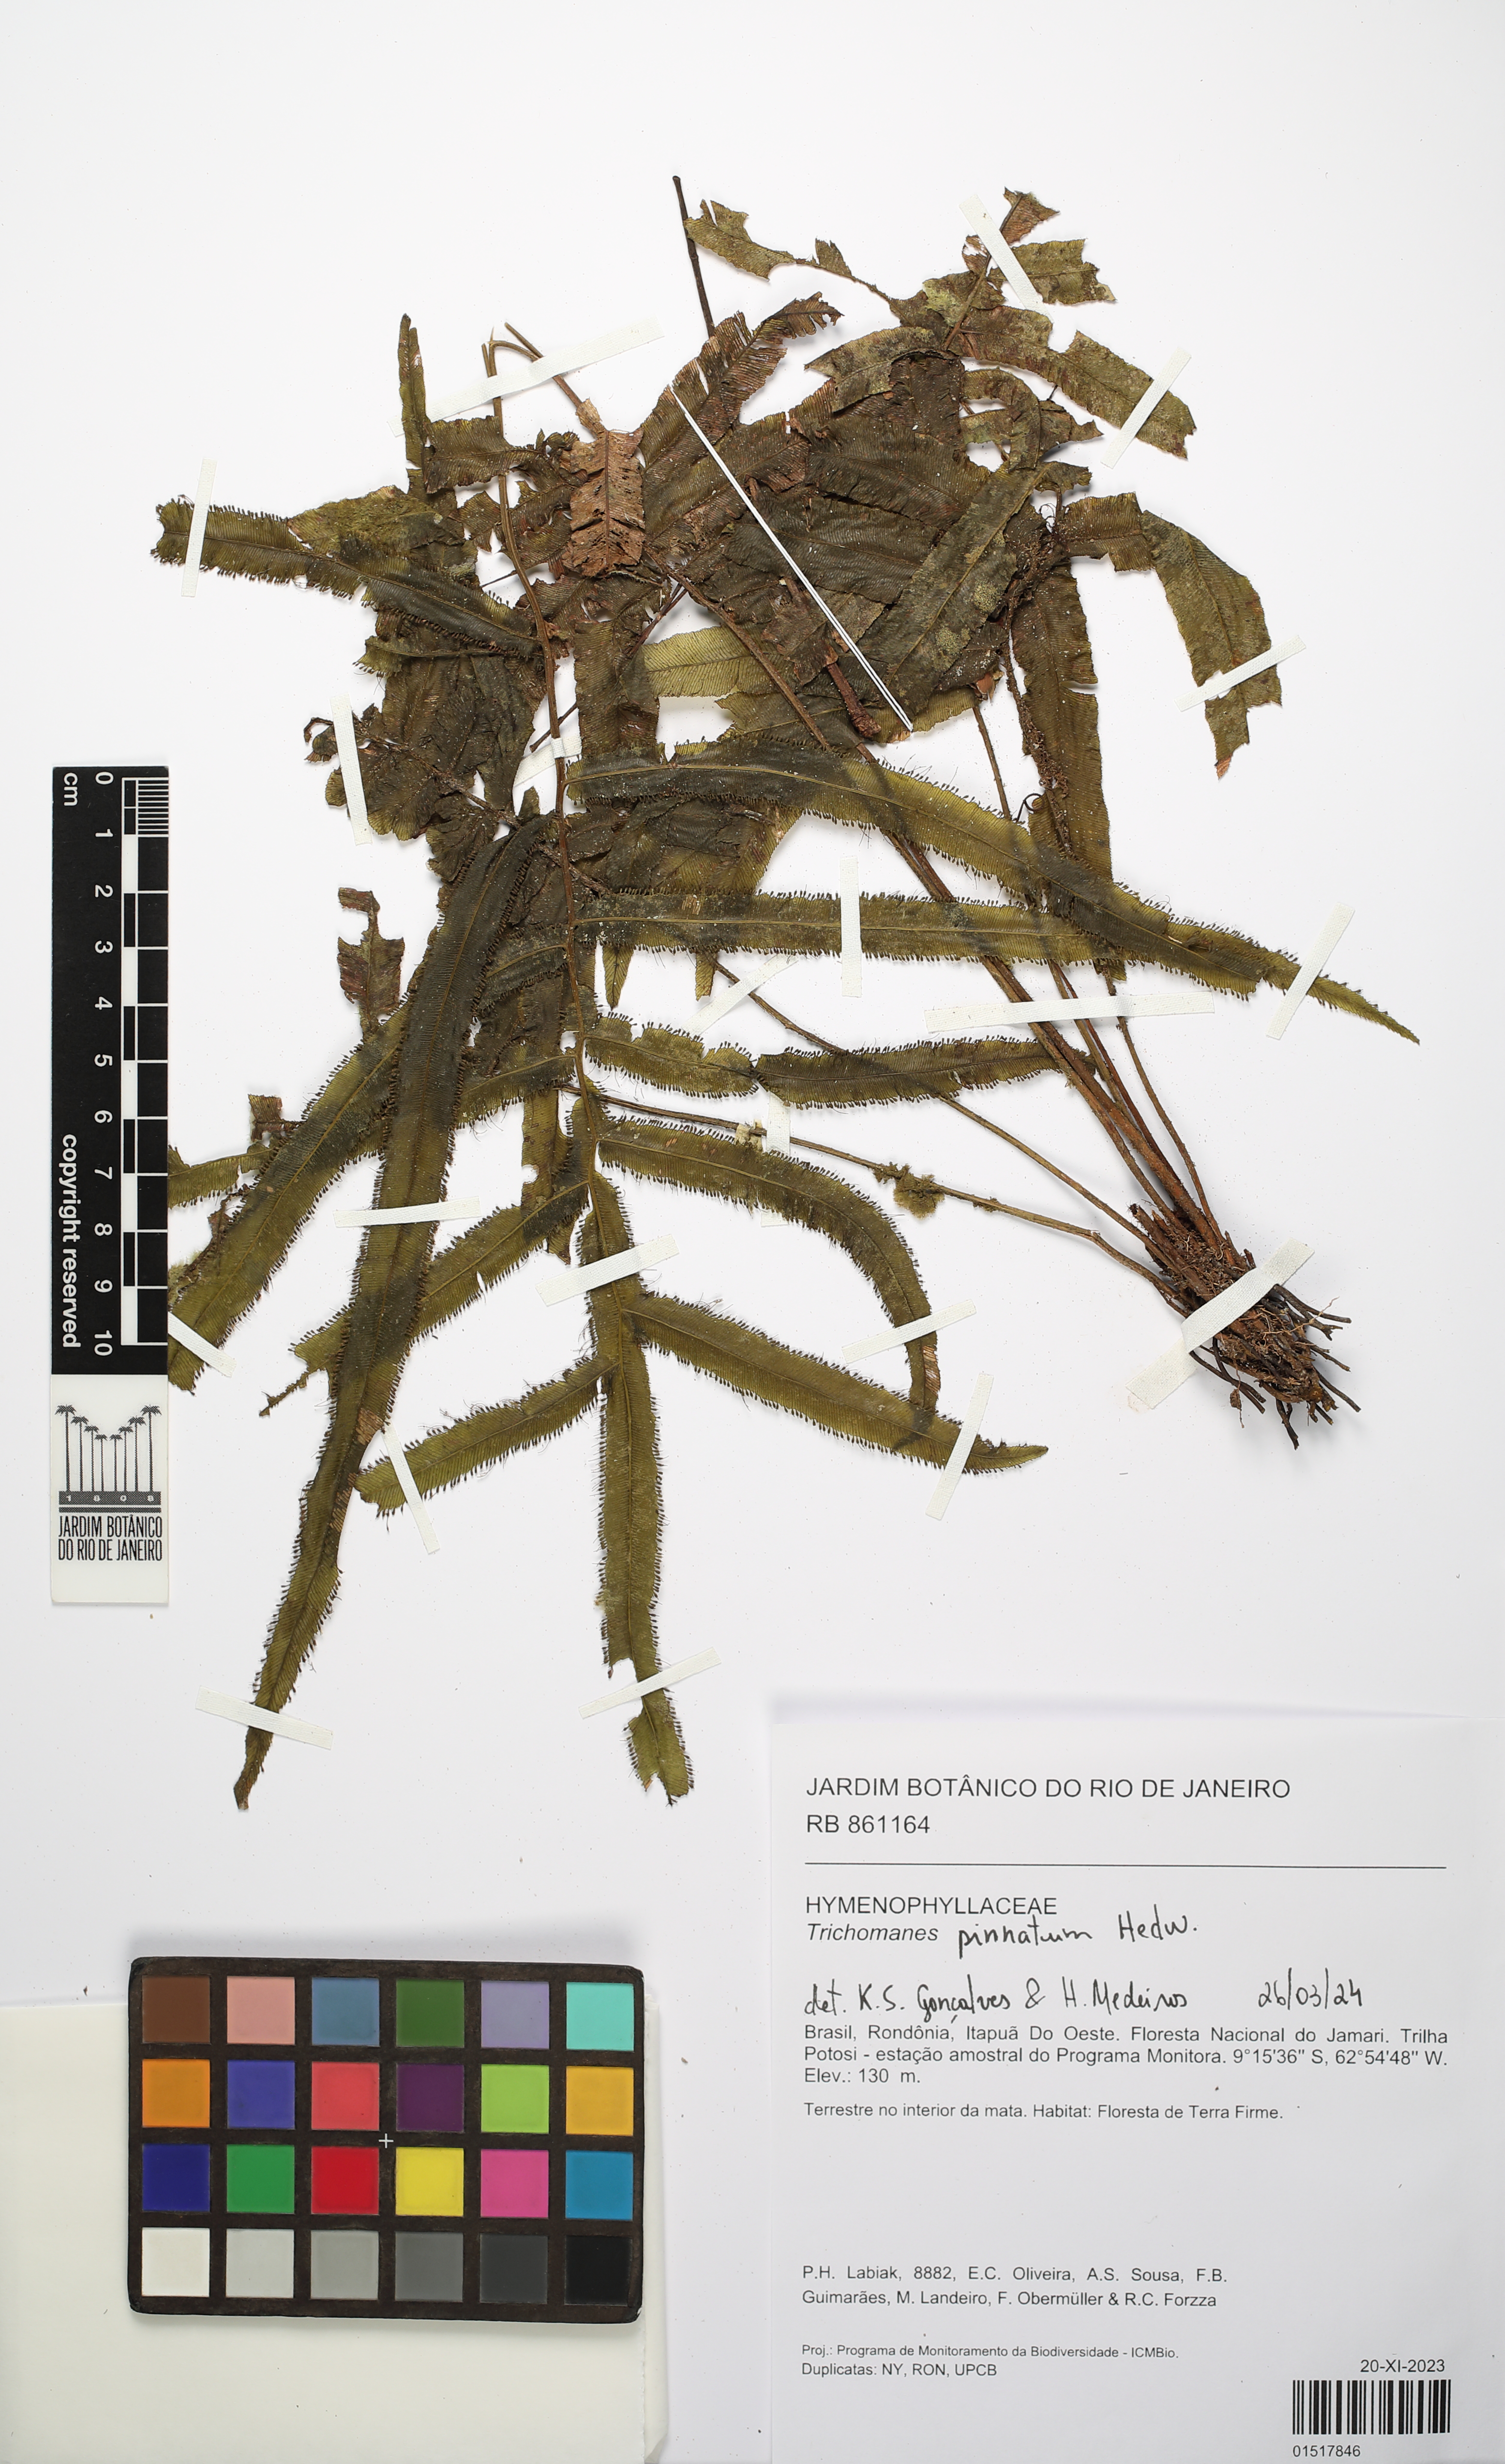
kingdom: Plantae
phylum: Tracheophyta
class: Polypodiopsida
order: Hymenophyllales
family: Hymenophyllaceae
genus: Trichomanes
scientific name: Trichomanes pinnatum
